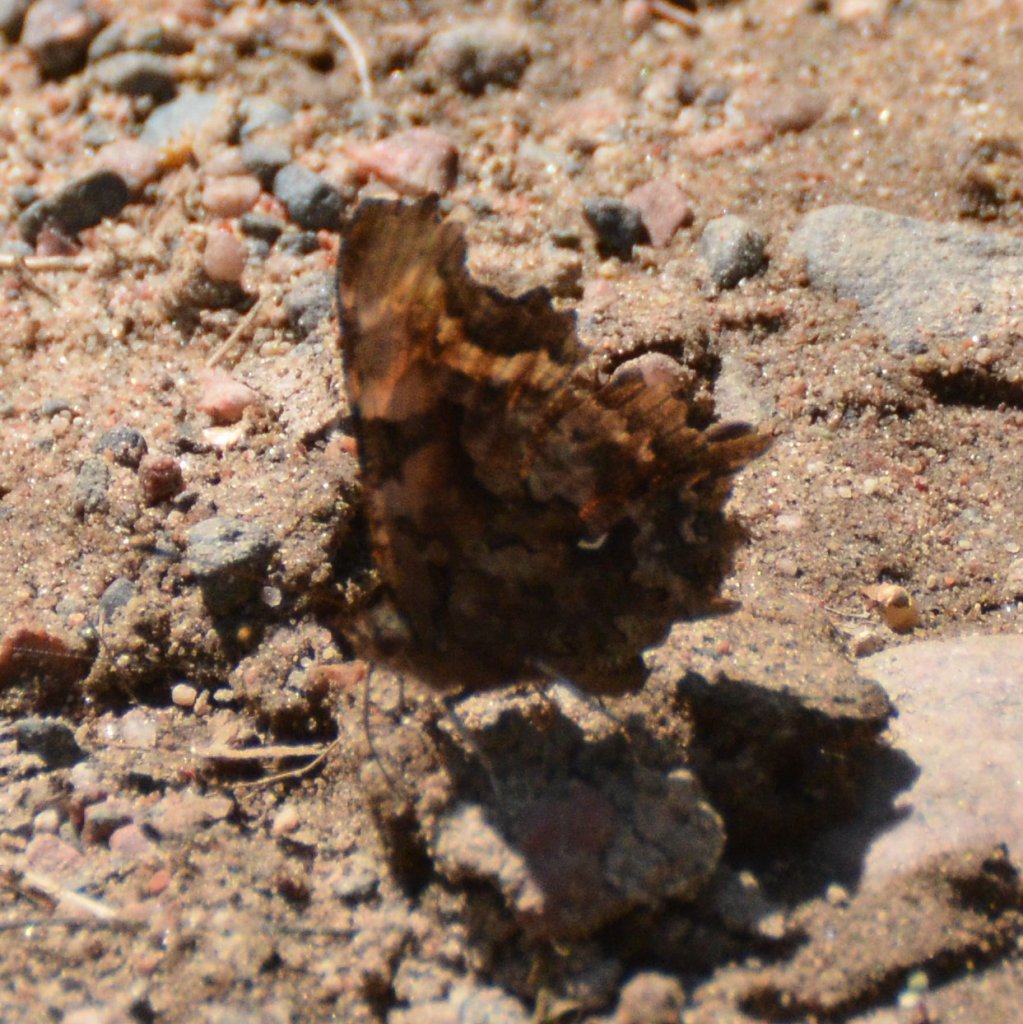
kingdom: Animalia
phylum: Arthropoda
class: Insecta
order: Lepidoptera
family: Nymphalidae
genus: Polygonia
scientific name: Polygonia faunus
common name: Green Comma
